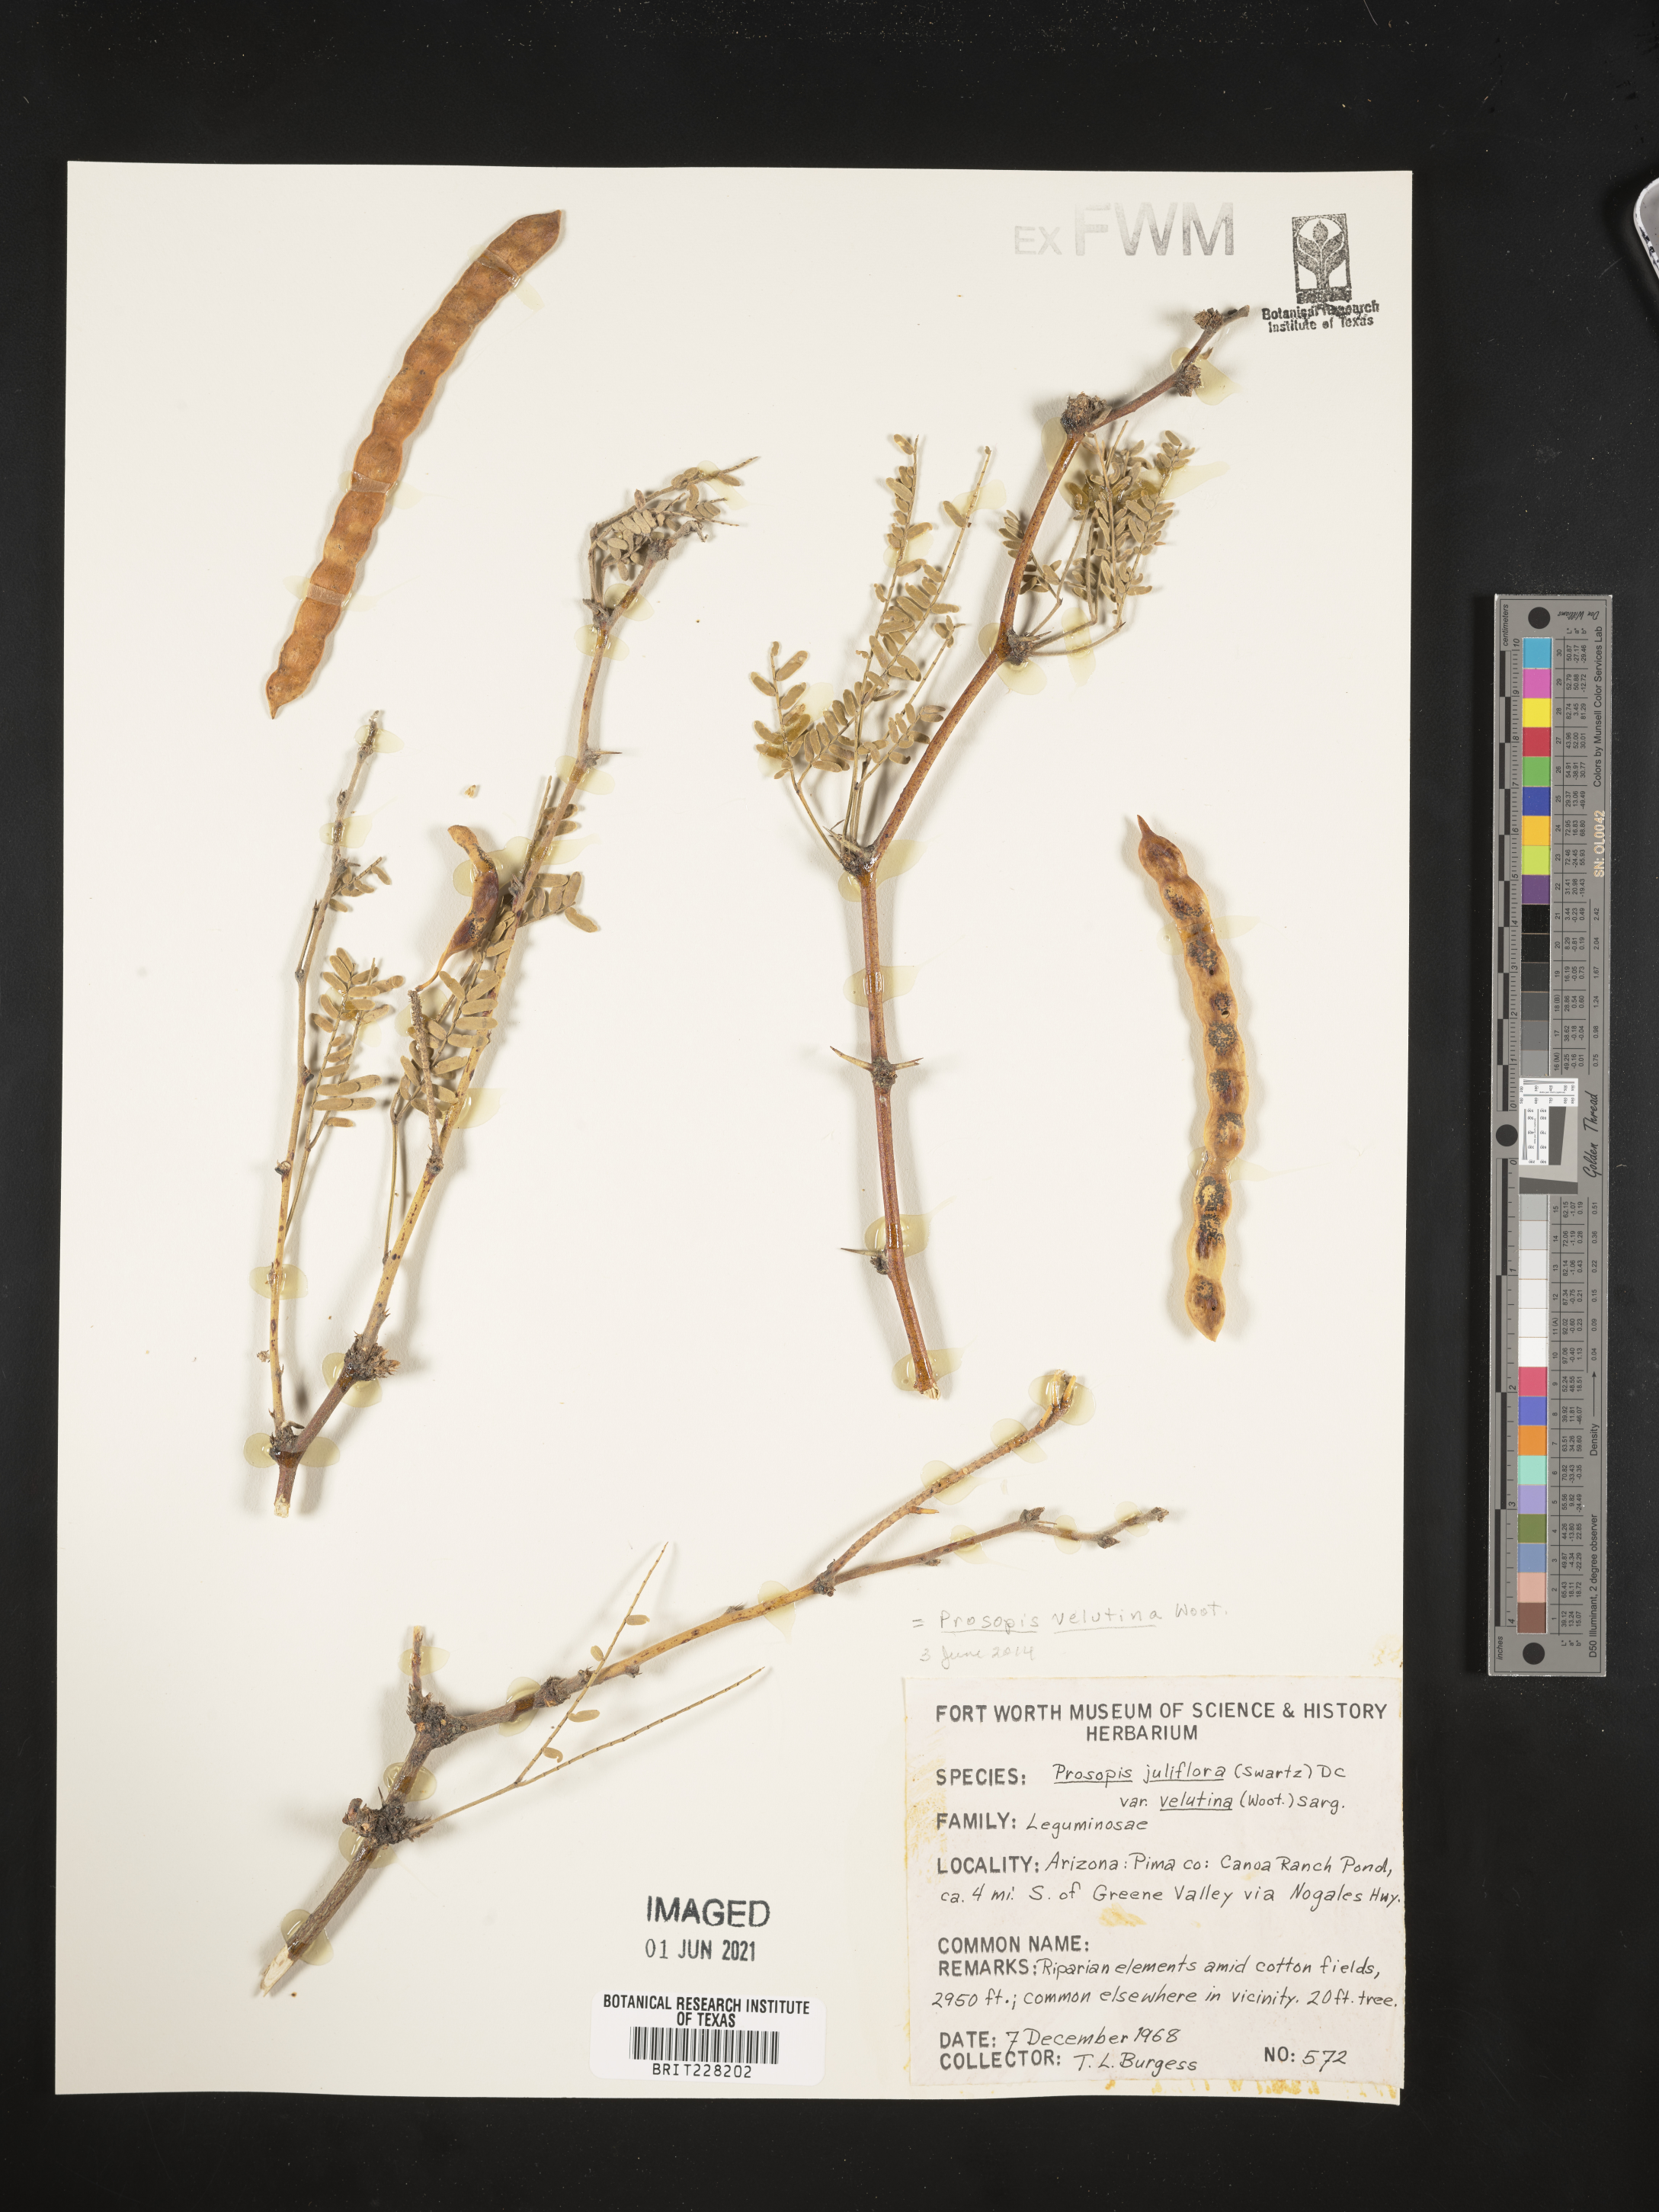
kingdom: Plantae
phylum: Tracheophyta
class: Magnoliopsida
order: Fabales
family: Fabaceae
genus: Prosopis
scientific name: Prosopis velutina
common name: Velvet mesquite
